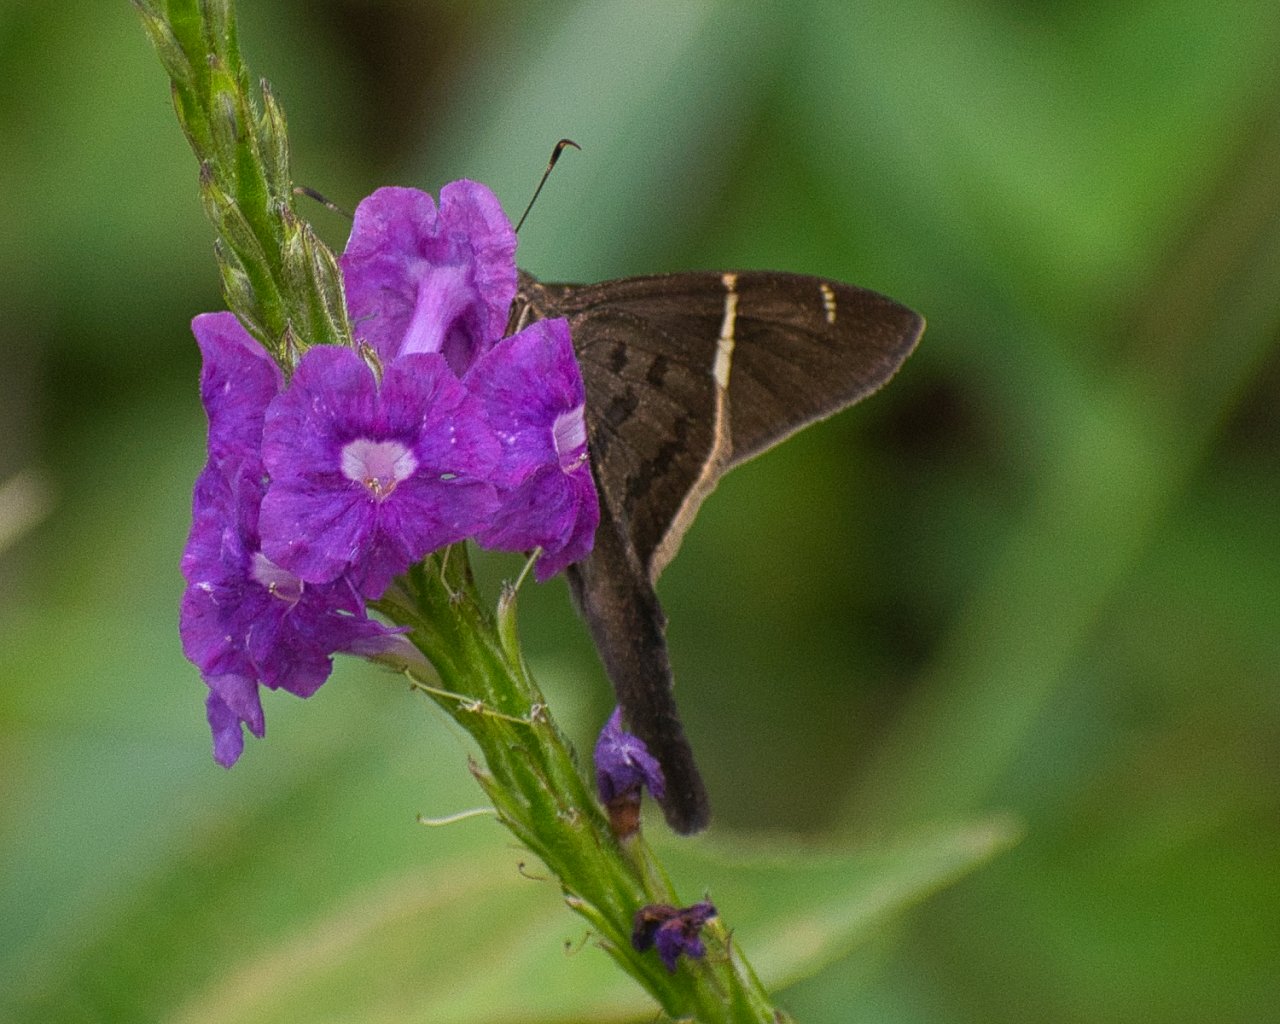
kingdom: Animalia
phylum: Arthropoda
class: Insecta
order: Lepidoptera
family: Hesperiidae
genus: Urbanus
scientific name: Urbanus teleus
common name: Teleus Longtail
